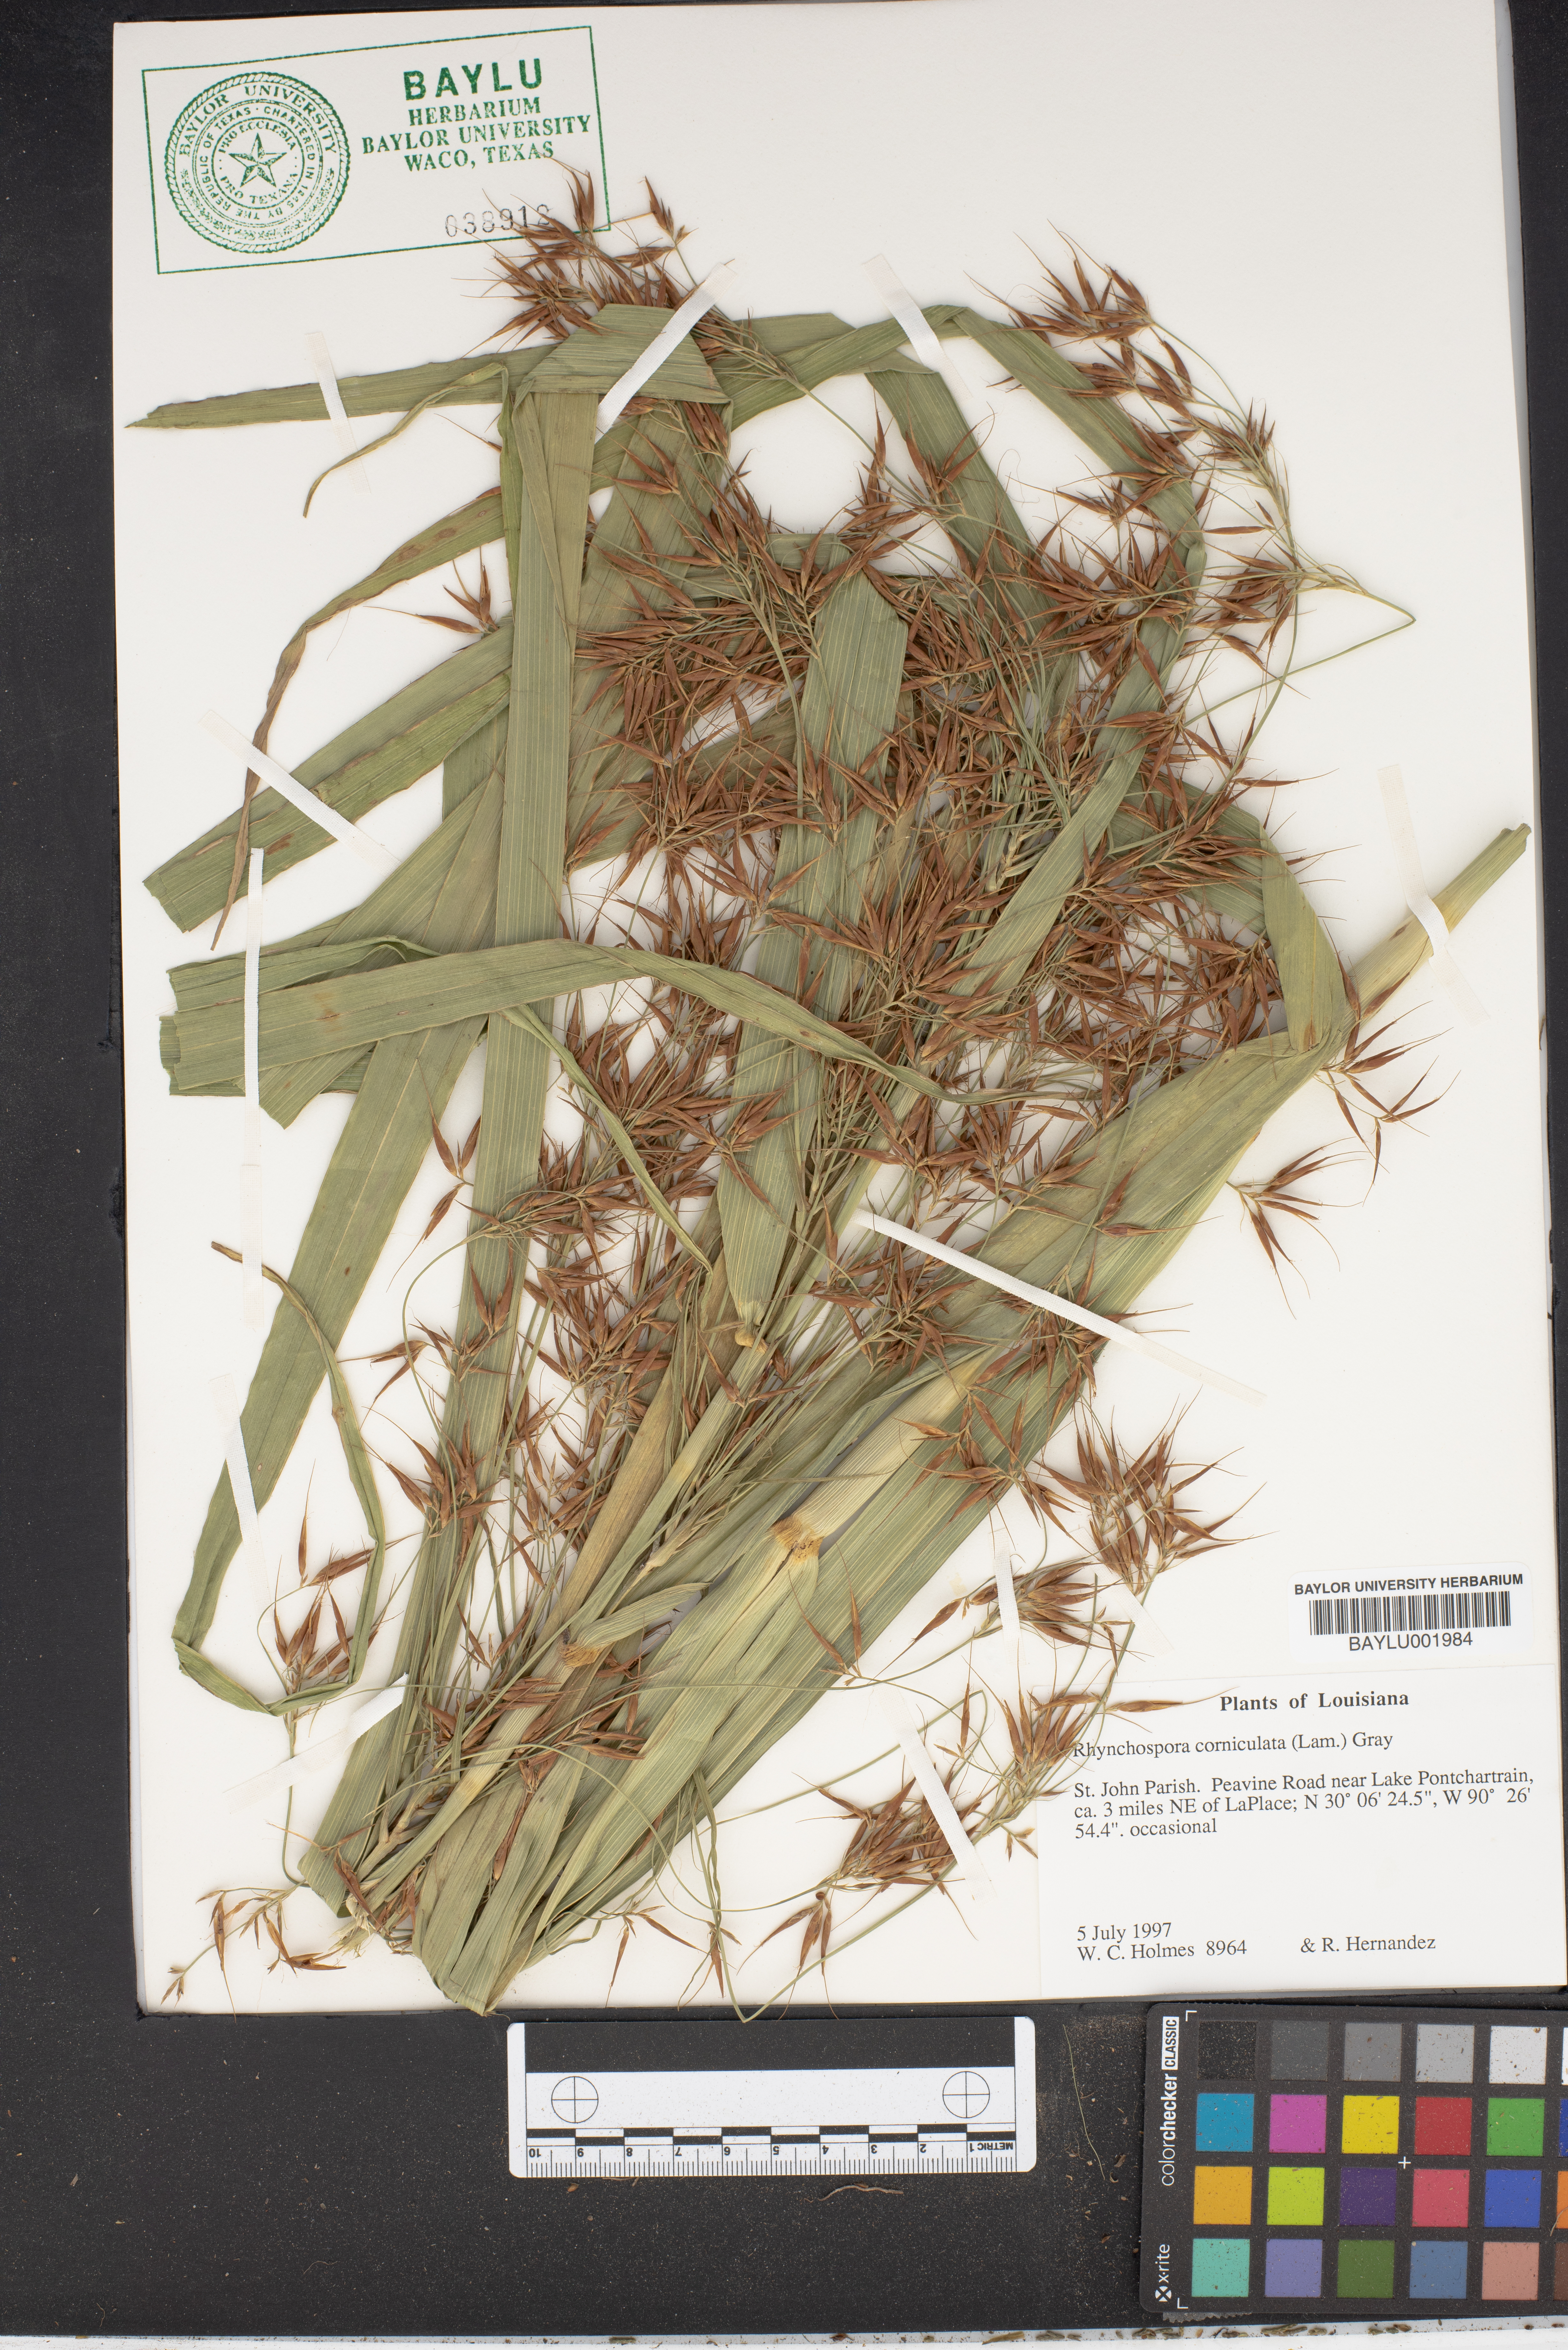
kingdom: Plantae
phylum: Tracheophyta
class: Liliopsida
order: Poales
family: Cyperaceae
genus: Rhynchospora
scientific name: Rhynchospora corniculata
